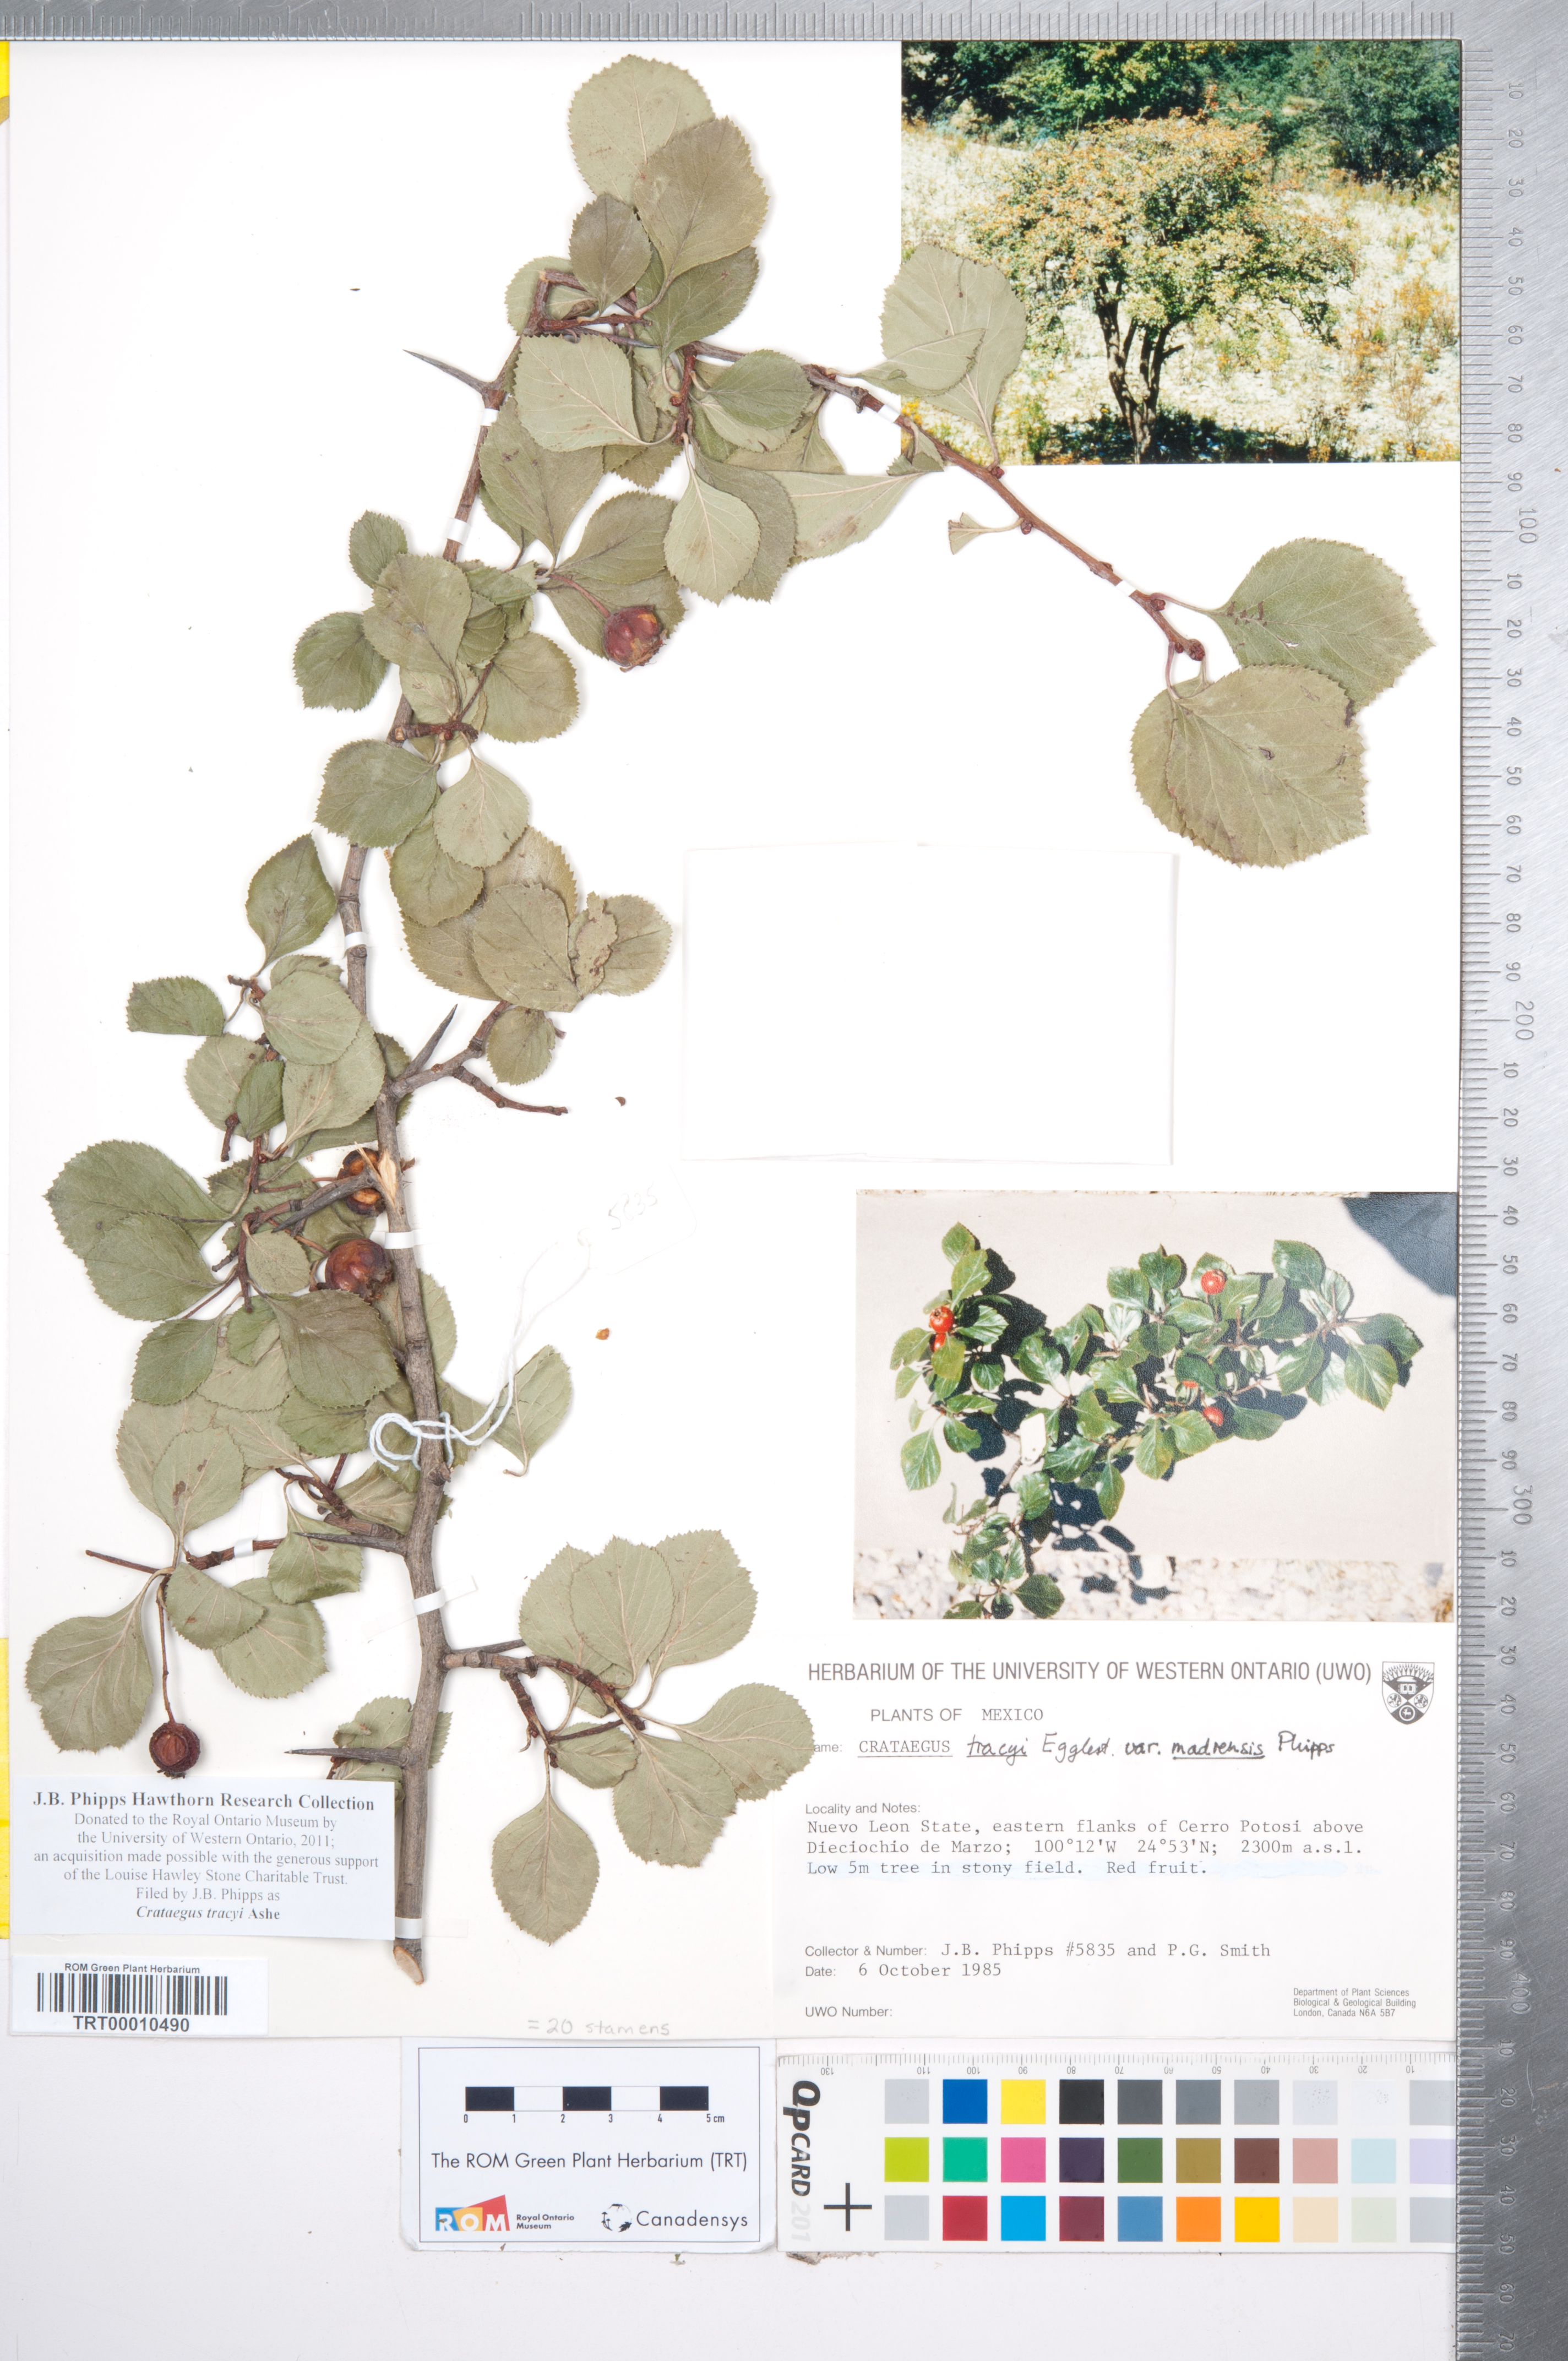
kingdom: Plantae
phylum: Tracheophyta
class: Magnoliopsida
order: Rosales
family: Rosaceae
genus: Crataegus
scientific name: Crataegus tracyi
